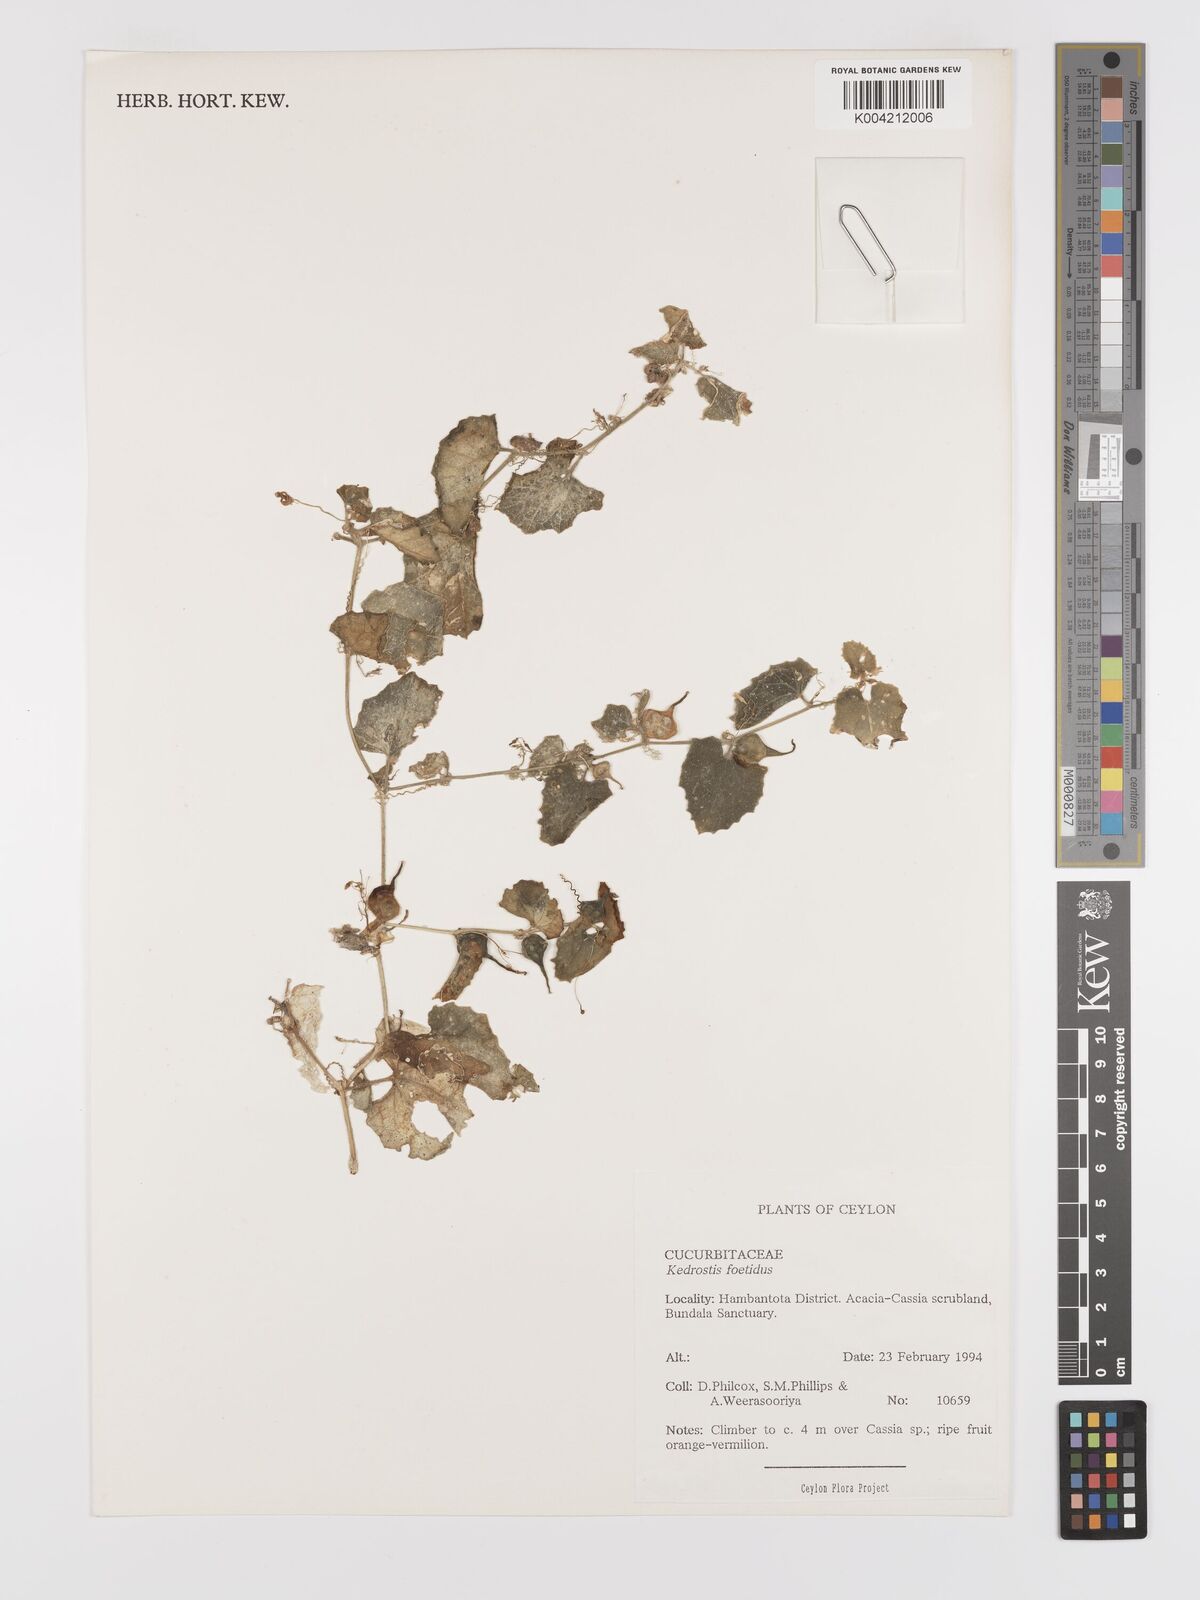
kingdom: Plantae
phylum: Tracheophyta
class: Magnoliopsida
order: Cucurbitales
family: Cucurbitaceae
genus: Kedrostis
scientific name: Kedrostis foetidissima
